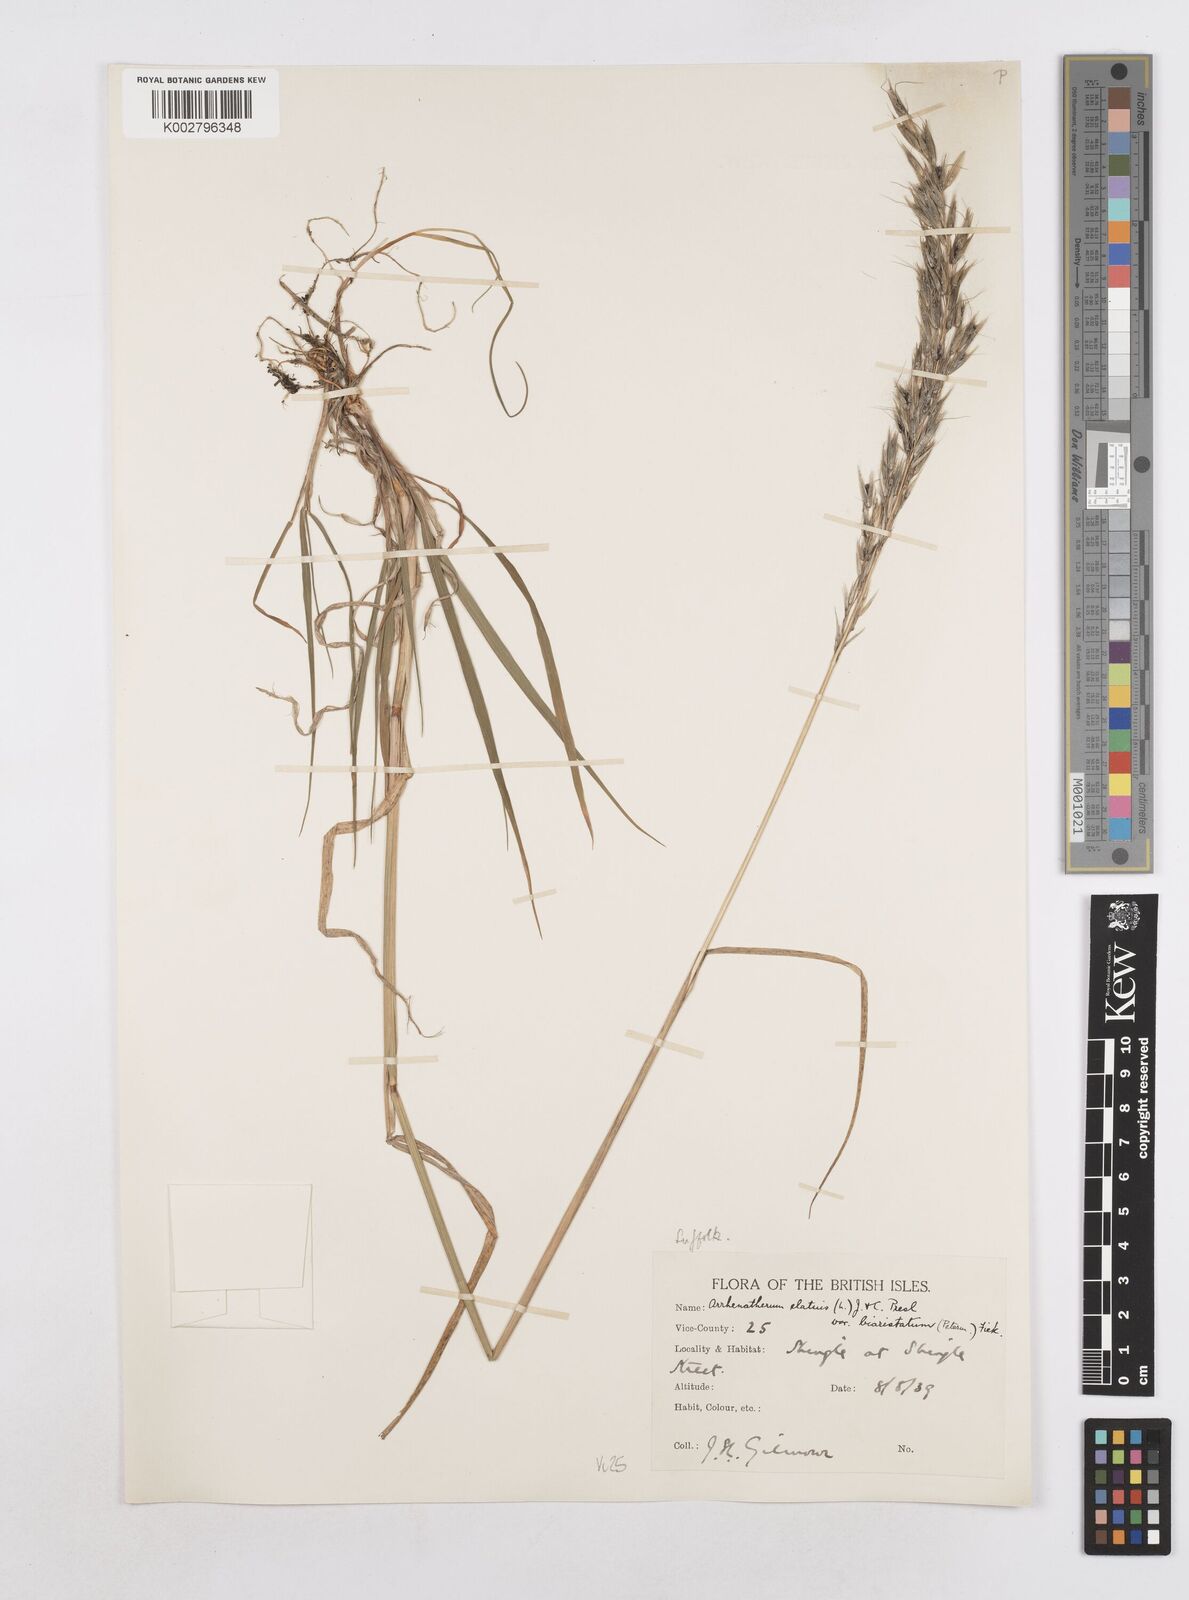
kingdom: Plantae
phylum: Tracheophyta
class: Liliopsida
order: Poales
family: Poaceae
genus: Arrhenatherum
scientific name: Arrhenatherum elatius
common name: Tall oatgrass
